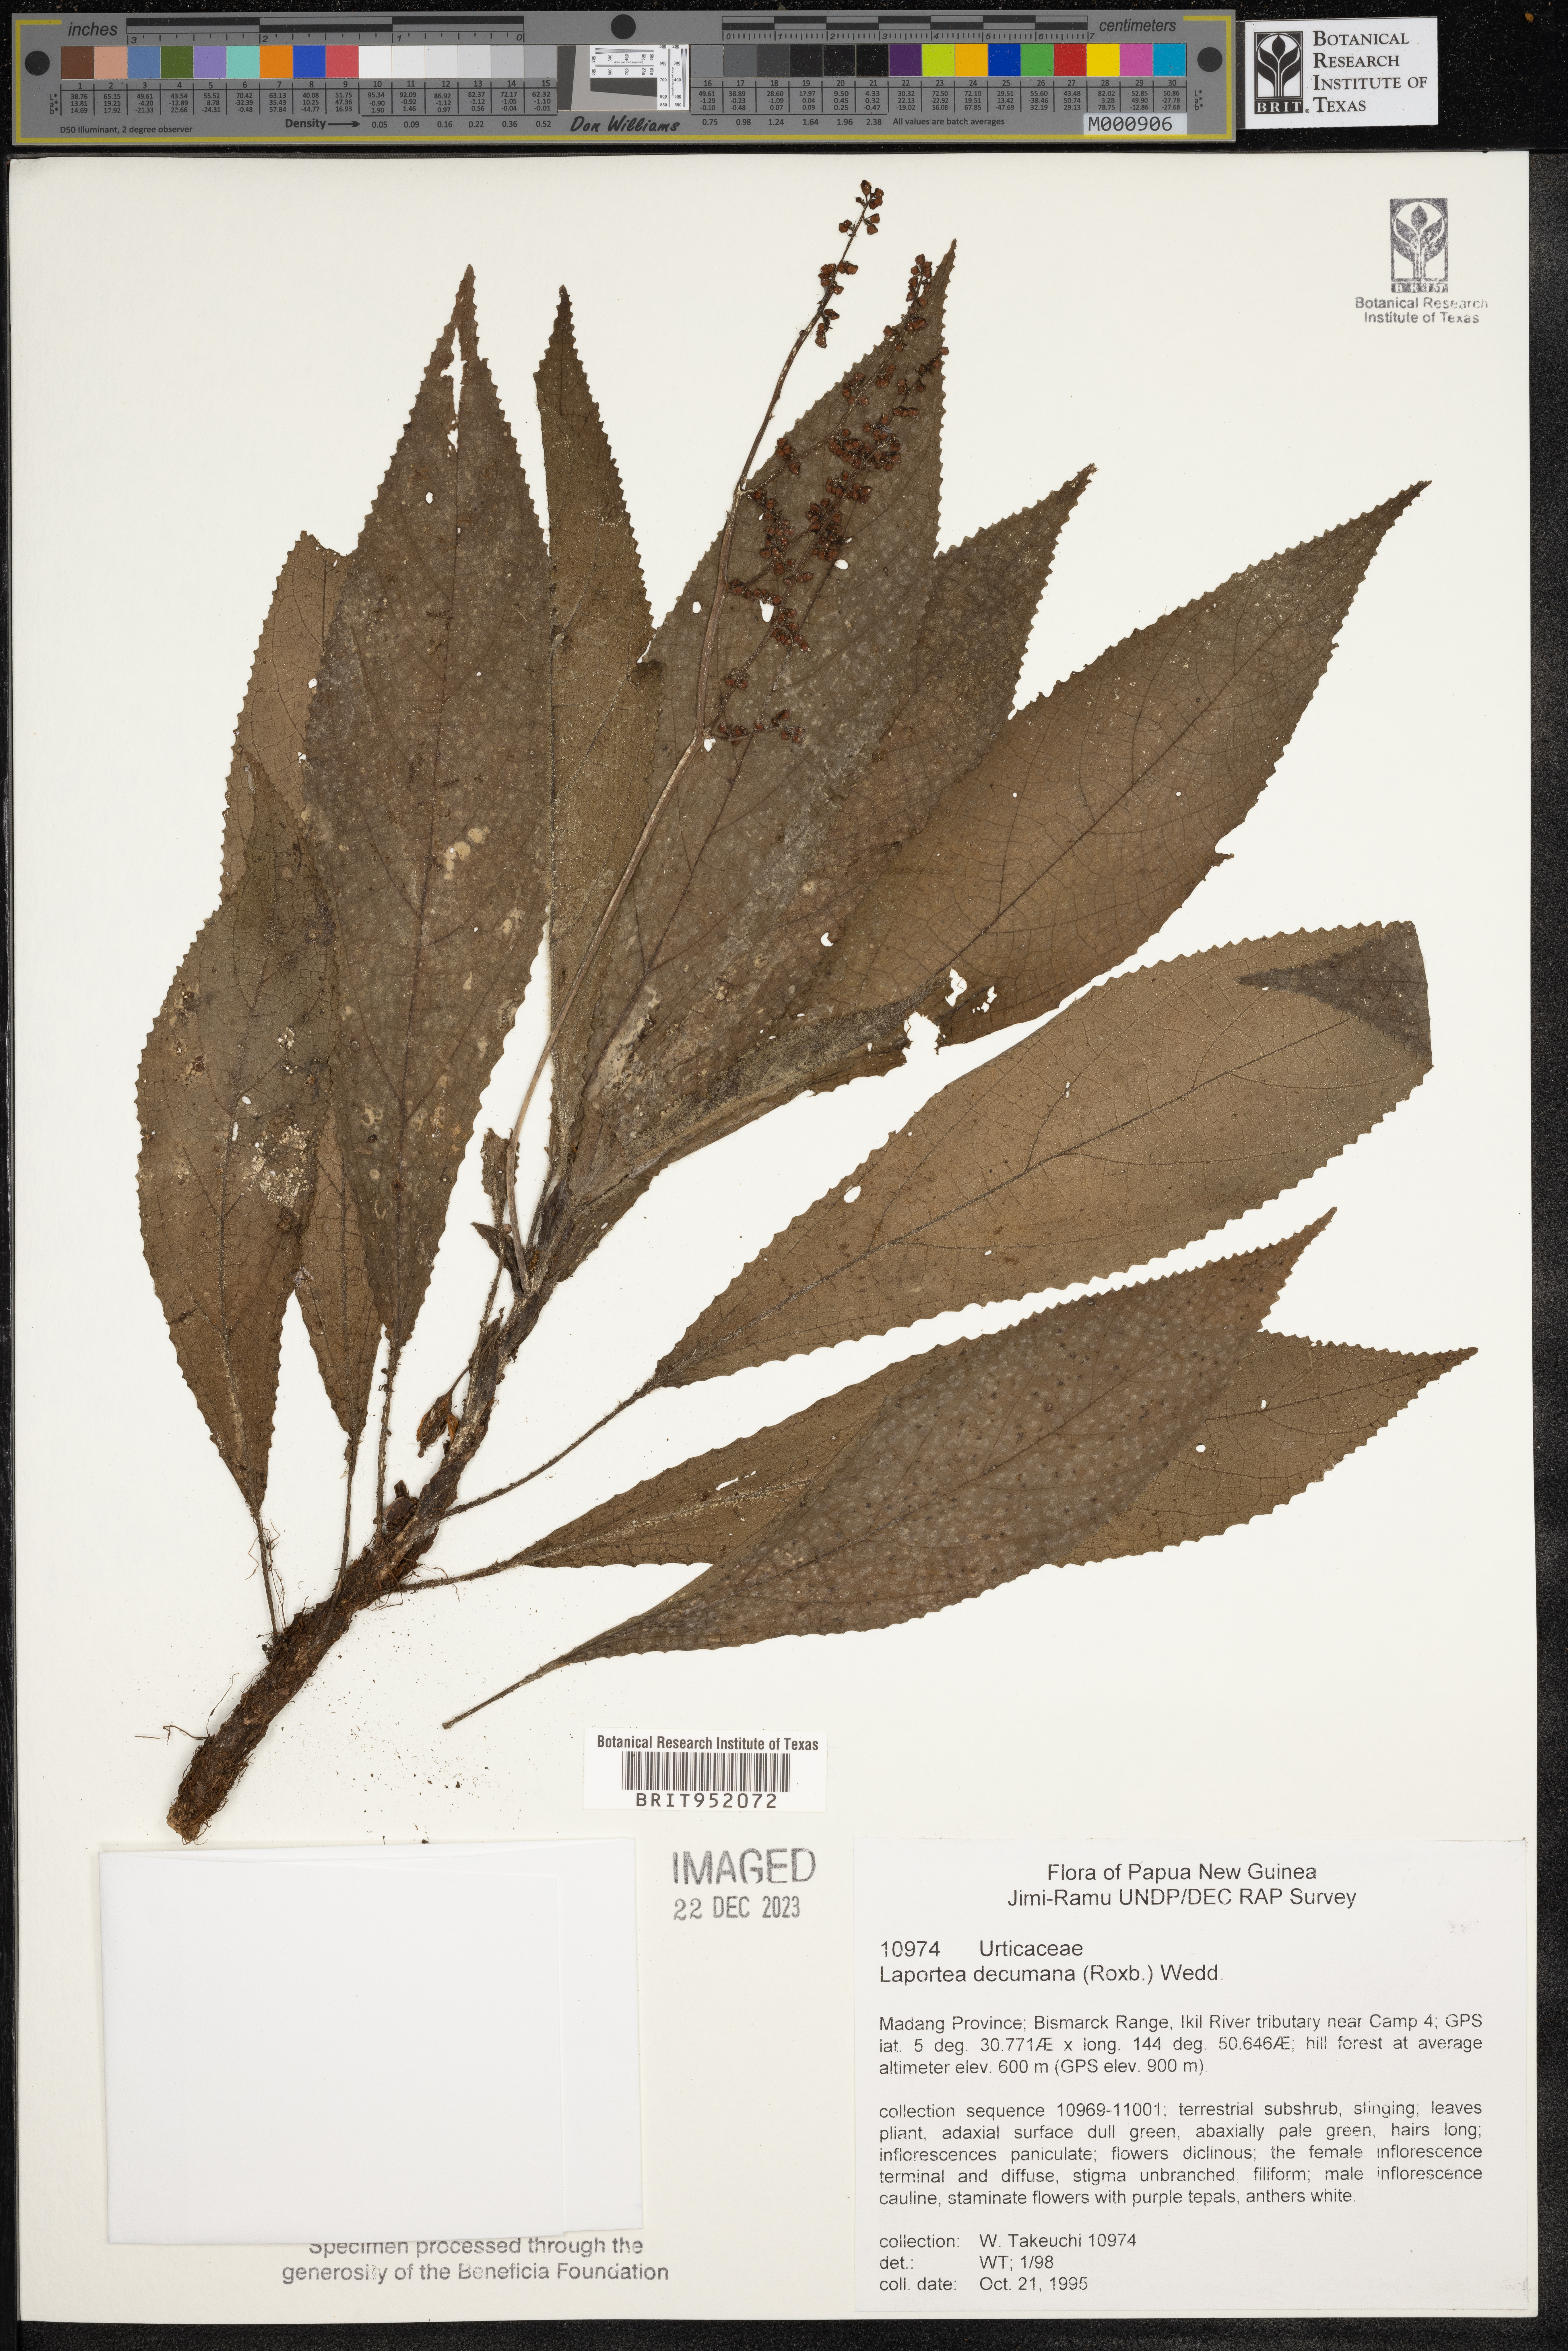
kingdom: Plantae
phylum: Tracheophyta
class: Magnoliopsida
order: Rosales
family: Urticaceae
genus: Laportea
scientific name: Laportea
